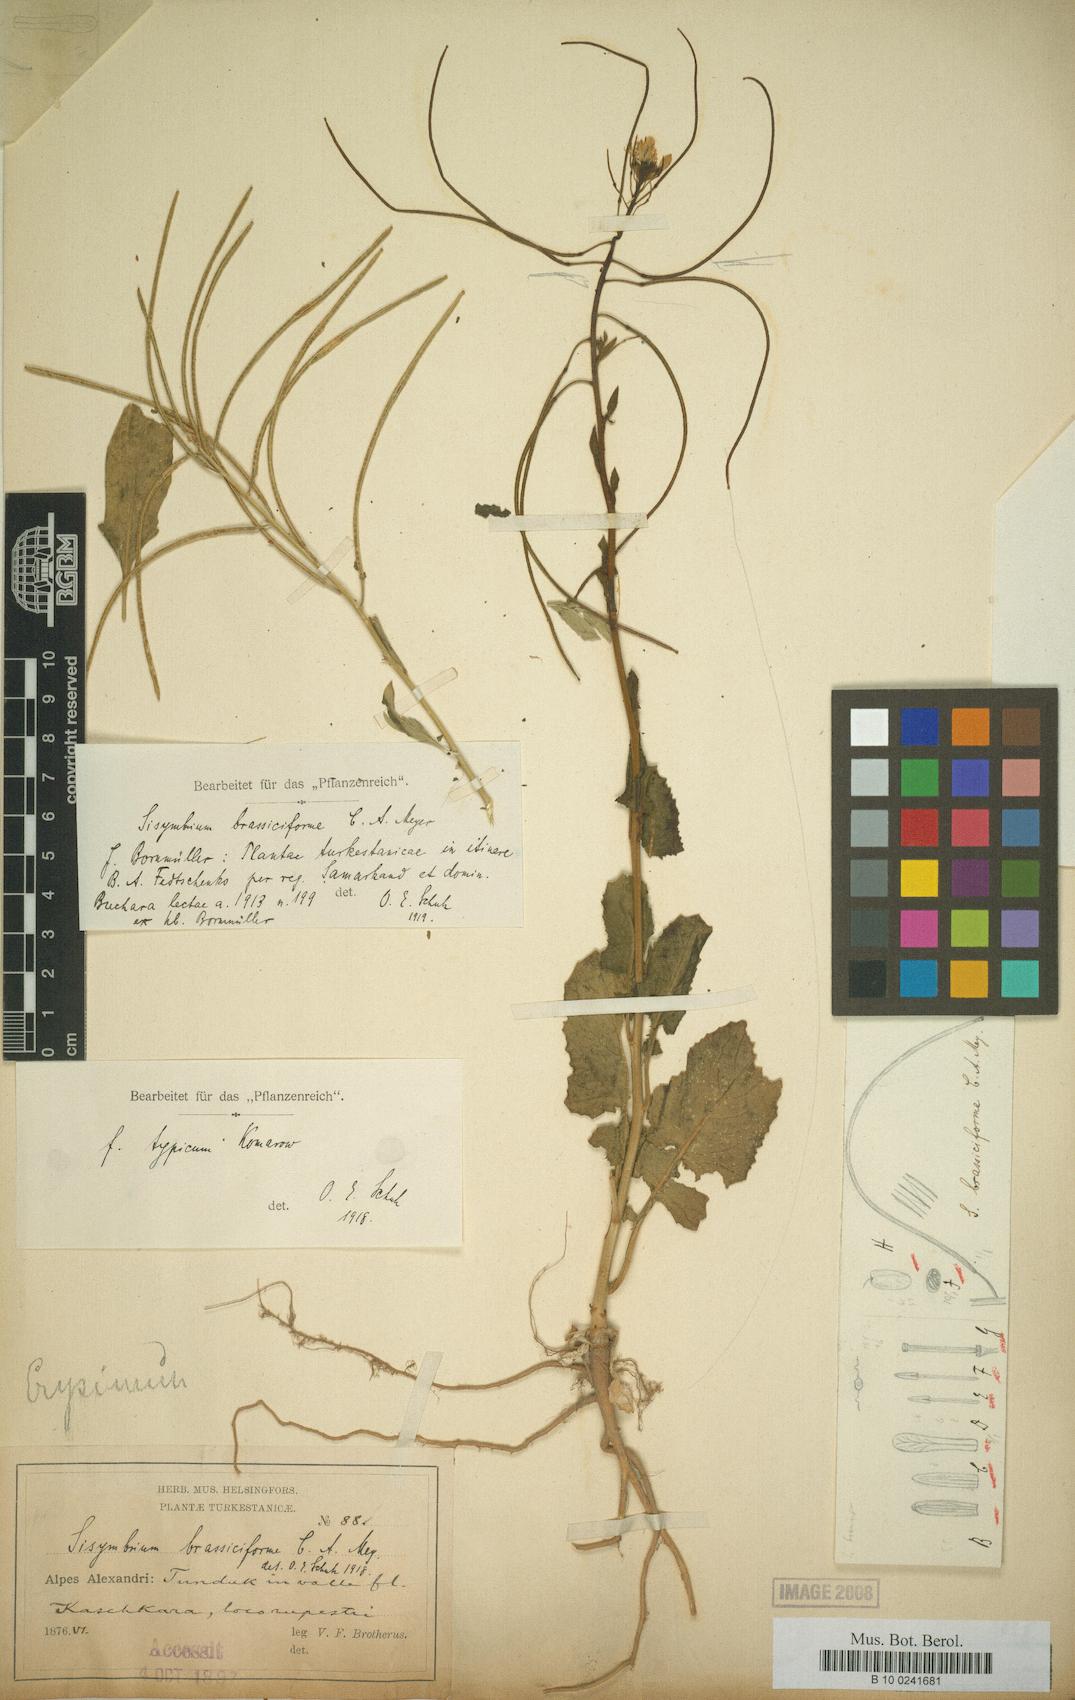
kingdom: Plantae
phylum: Tracheophyta
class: Magnoliopsida
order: Brassicales
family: Brassicaceae
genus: Sisymbrium
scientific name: Sisymbrium brassiciforme
